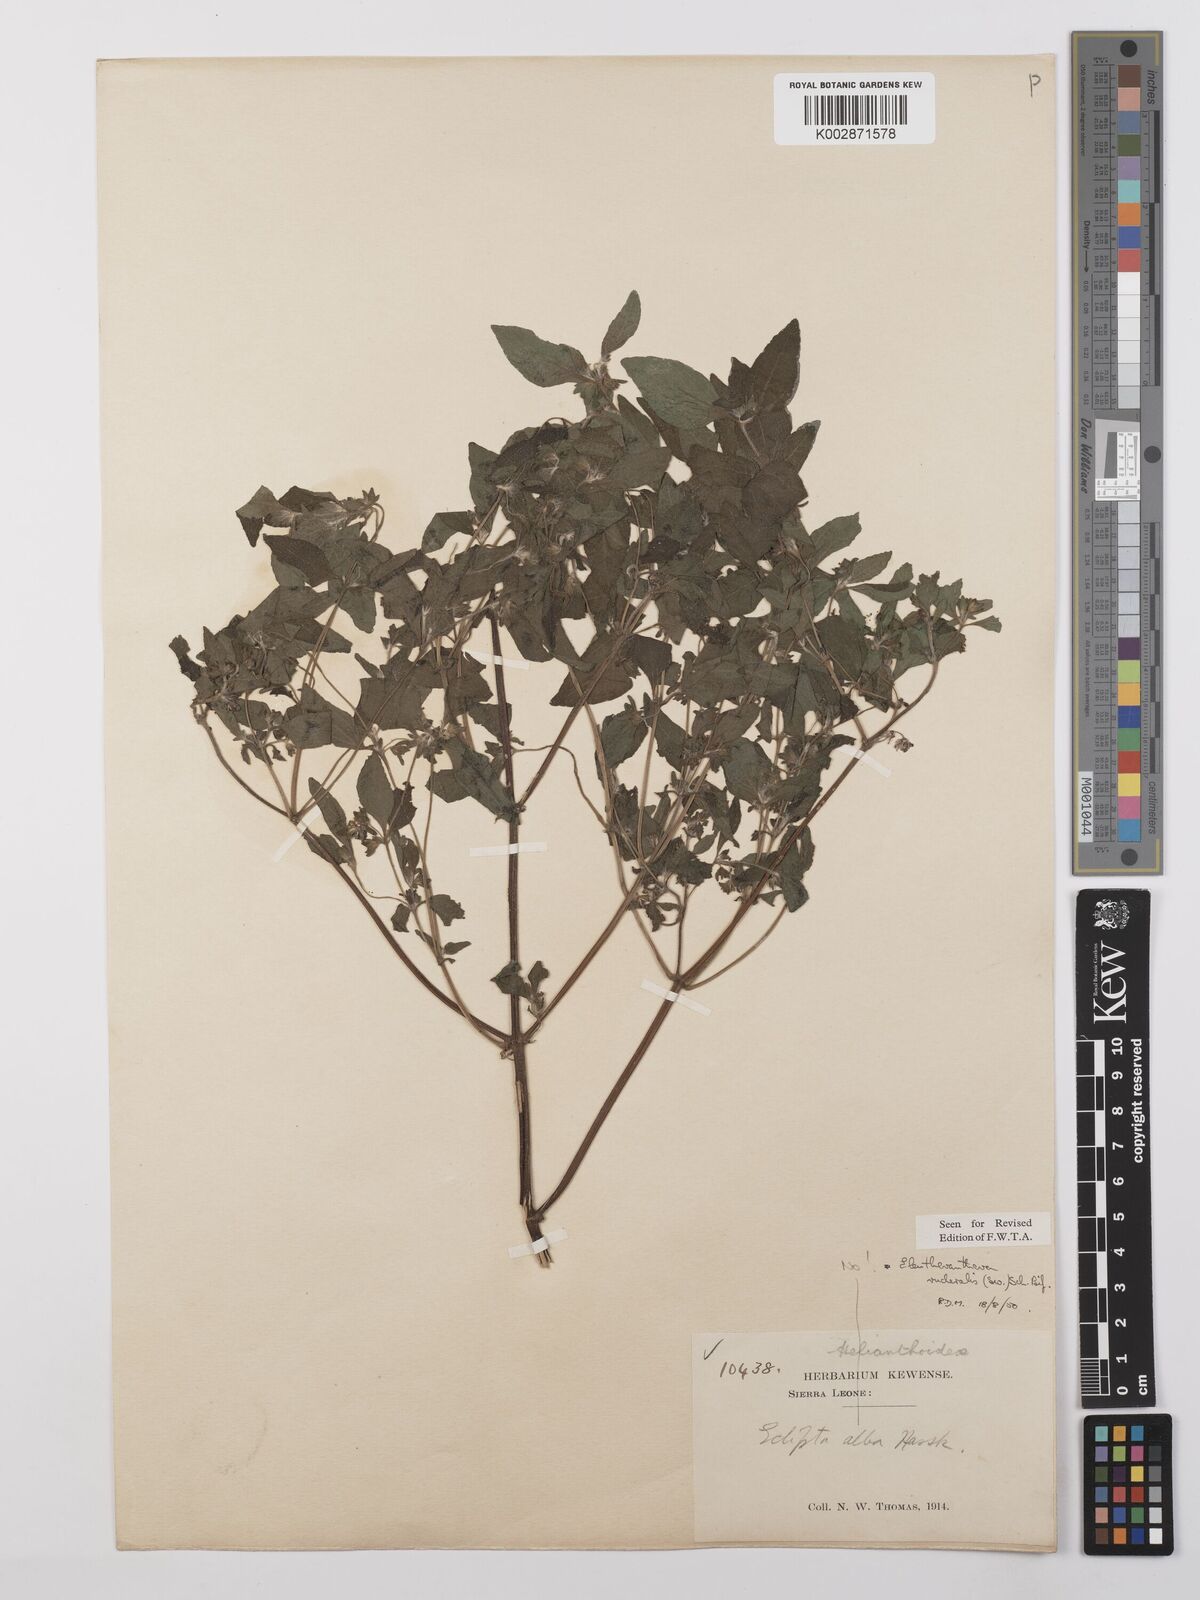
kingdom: Plantae
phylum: Tracheophyta
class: Magnoliopsida
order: Asterales
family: Asteraceae
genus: Eleutheranthera
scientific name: Eleutheranthera ruderalis
